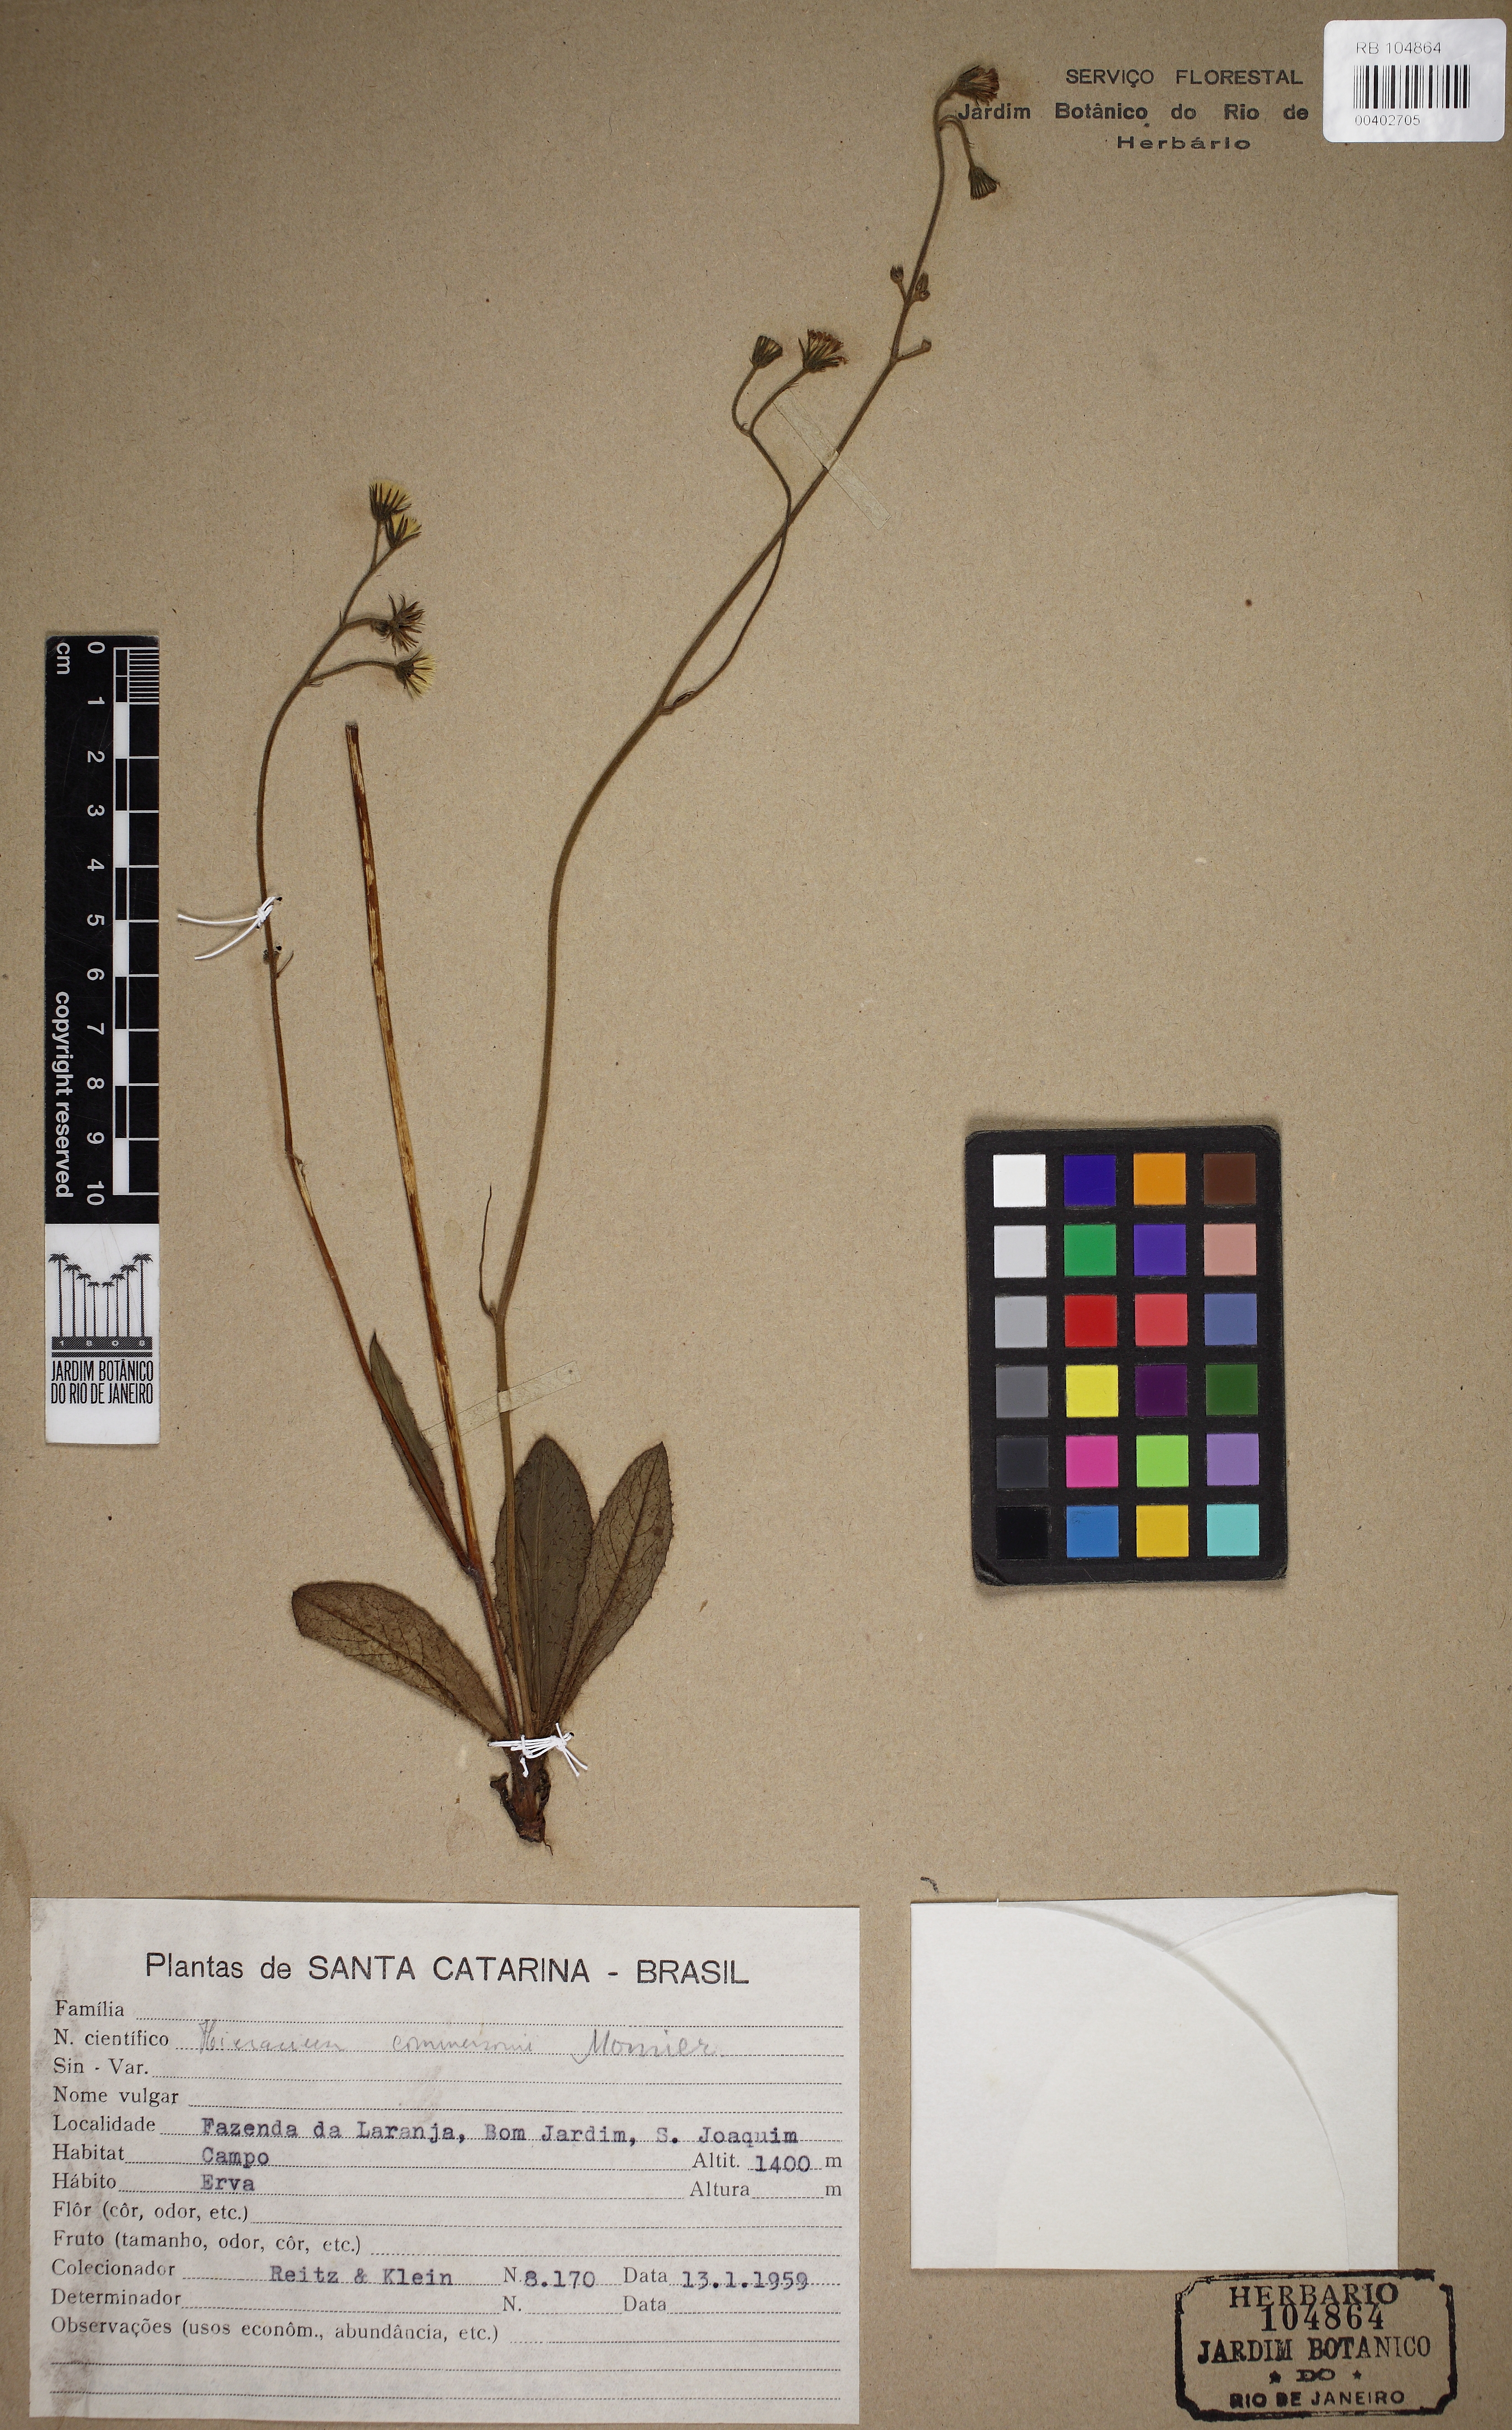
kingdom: Plantae
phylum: Tracheophyta
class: Magnoliopsida
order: Asterales
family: Asteraceae
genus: Hieracium
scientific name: Hieracium semiglabratum
